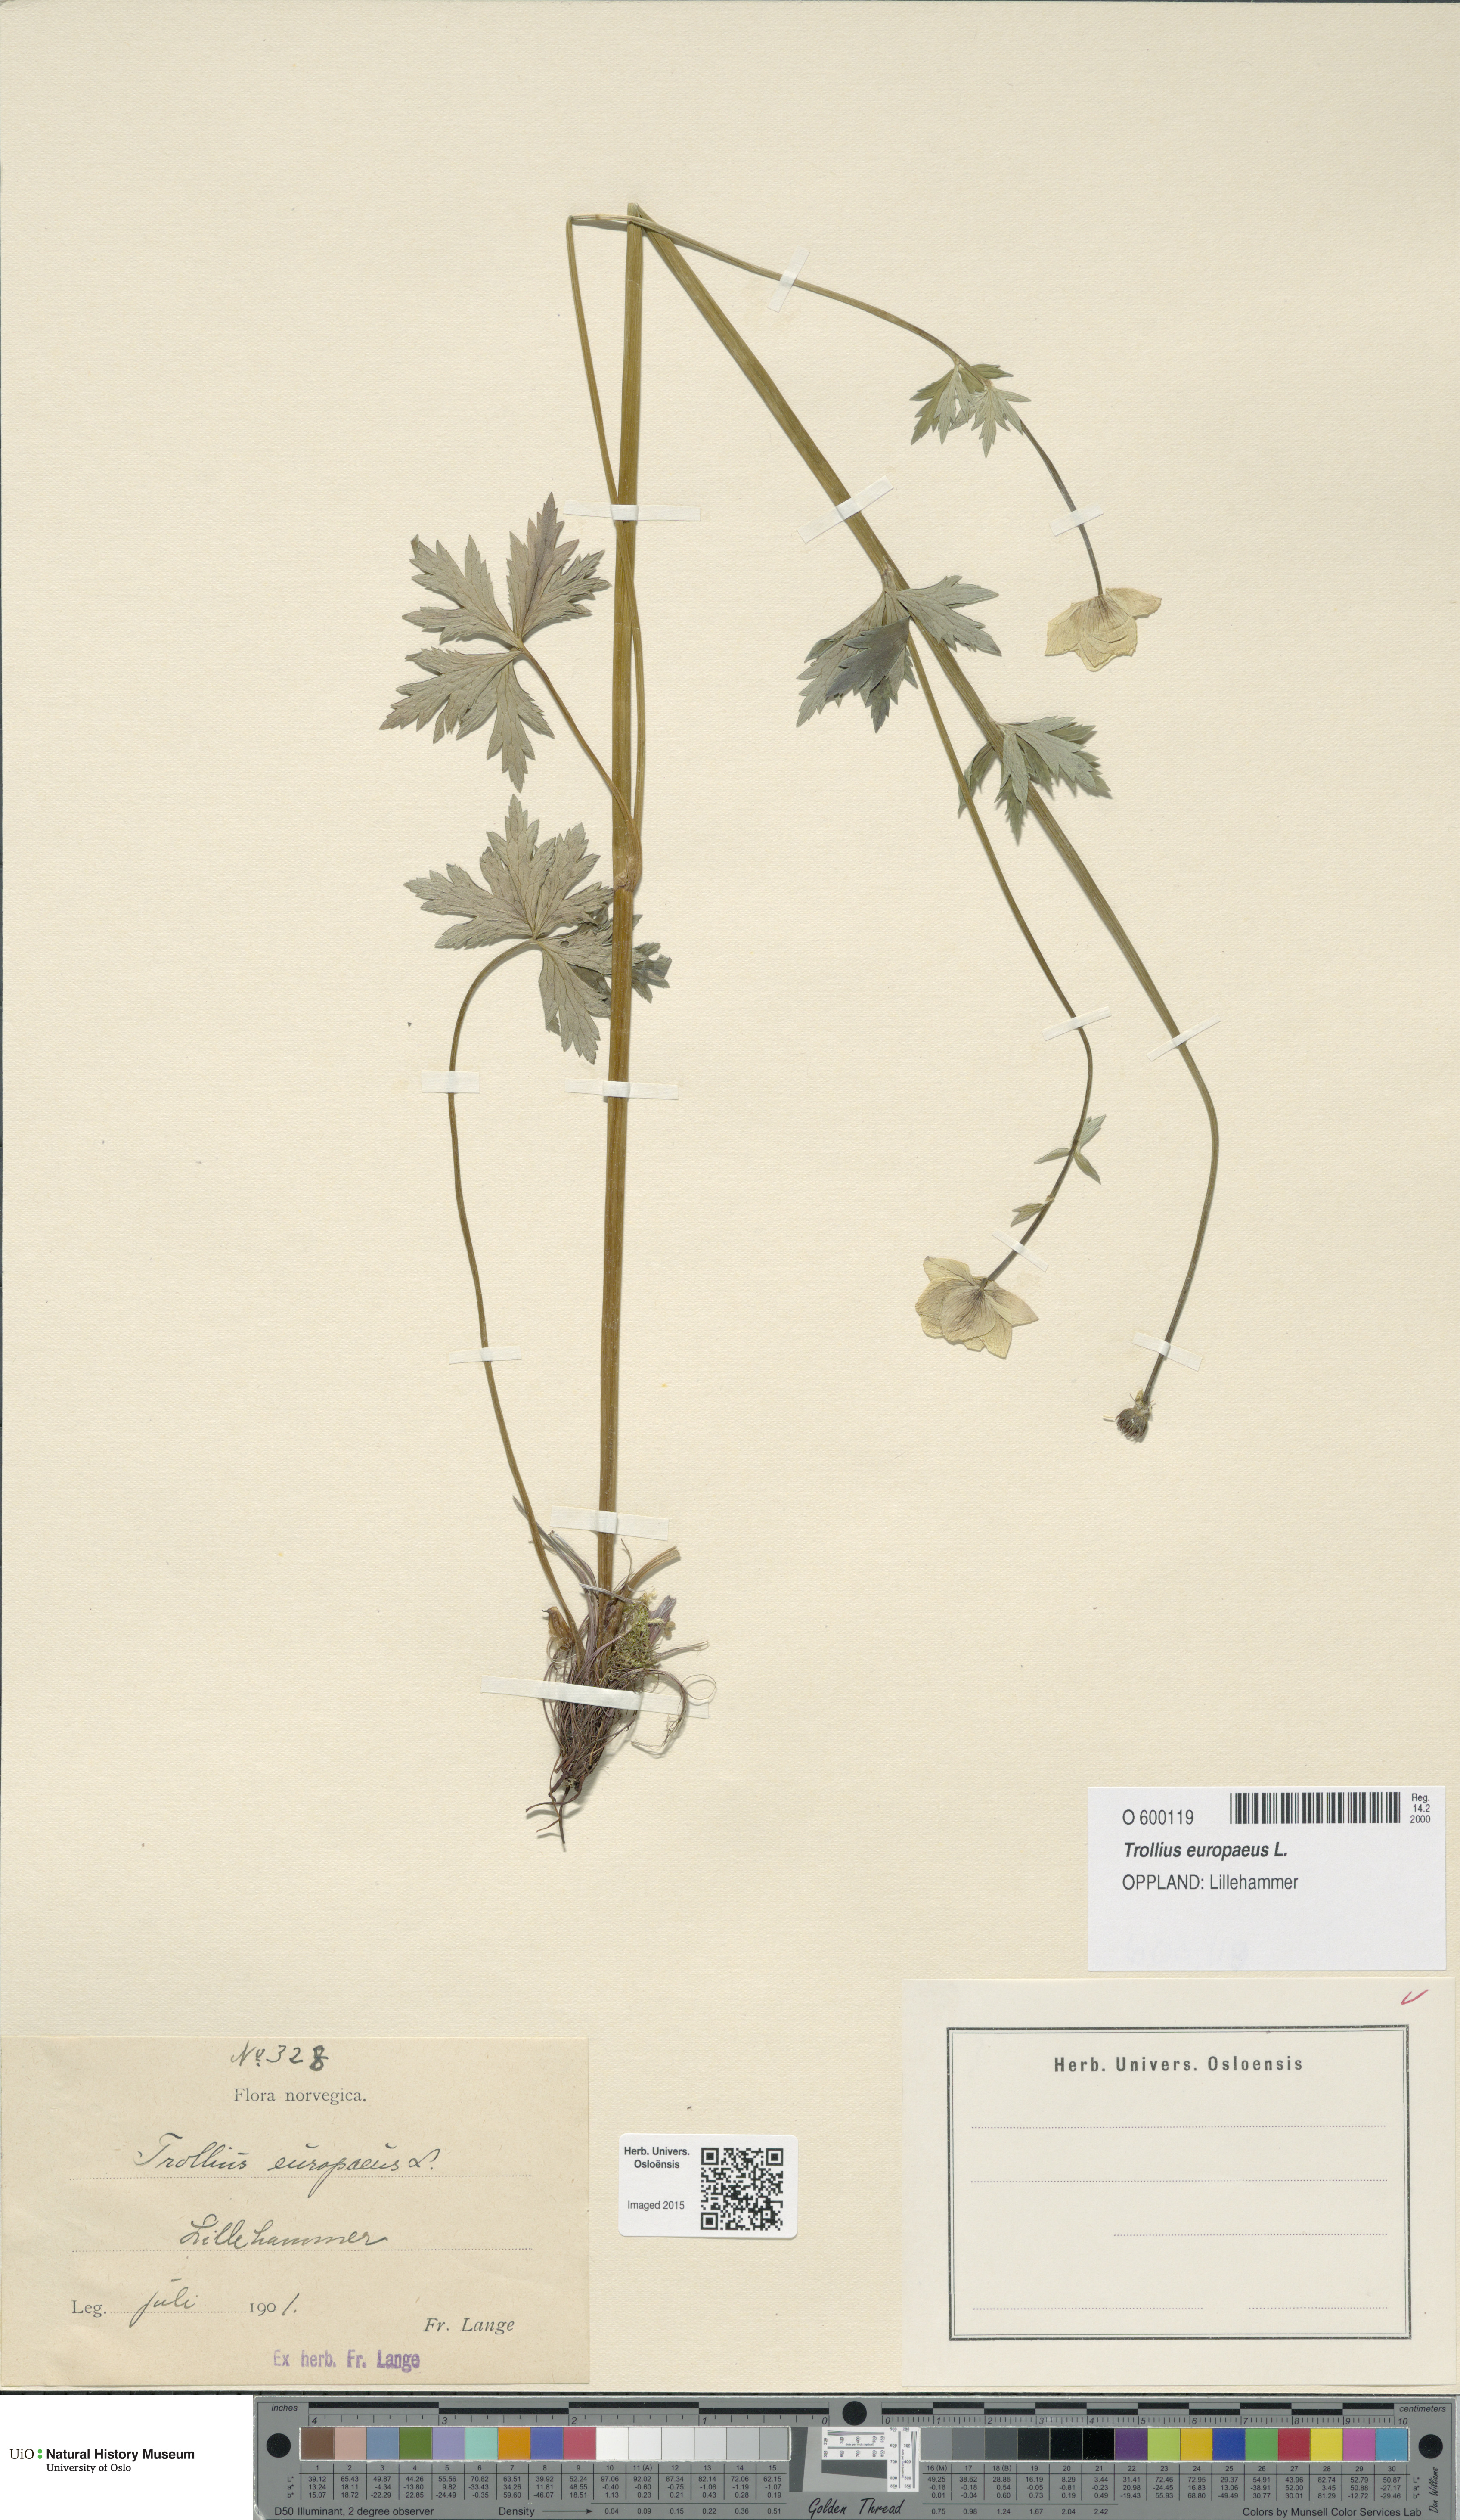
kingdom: Plantae
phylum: Tracheophyta
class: Magnoliopsida
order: Ranunculales
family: Ranunculaceae
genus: Trollius
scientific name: Trollius europaeus
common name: European globeflower
